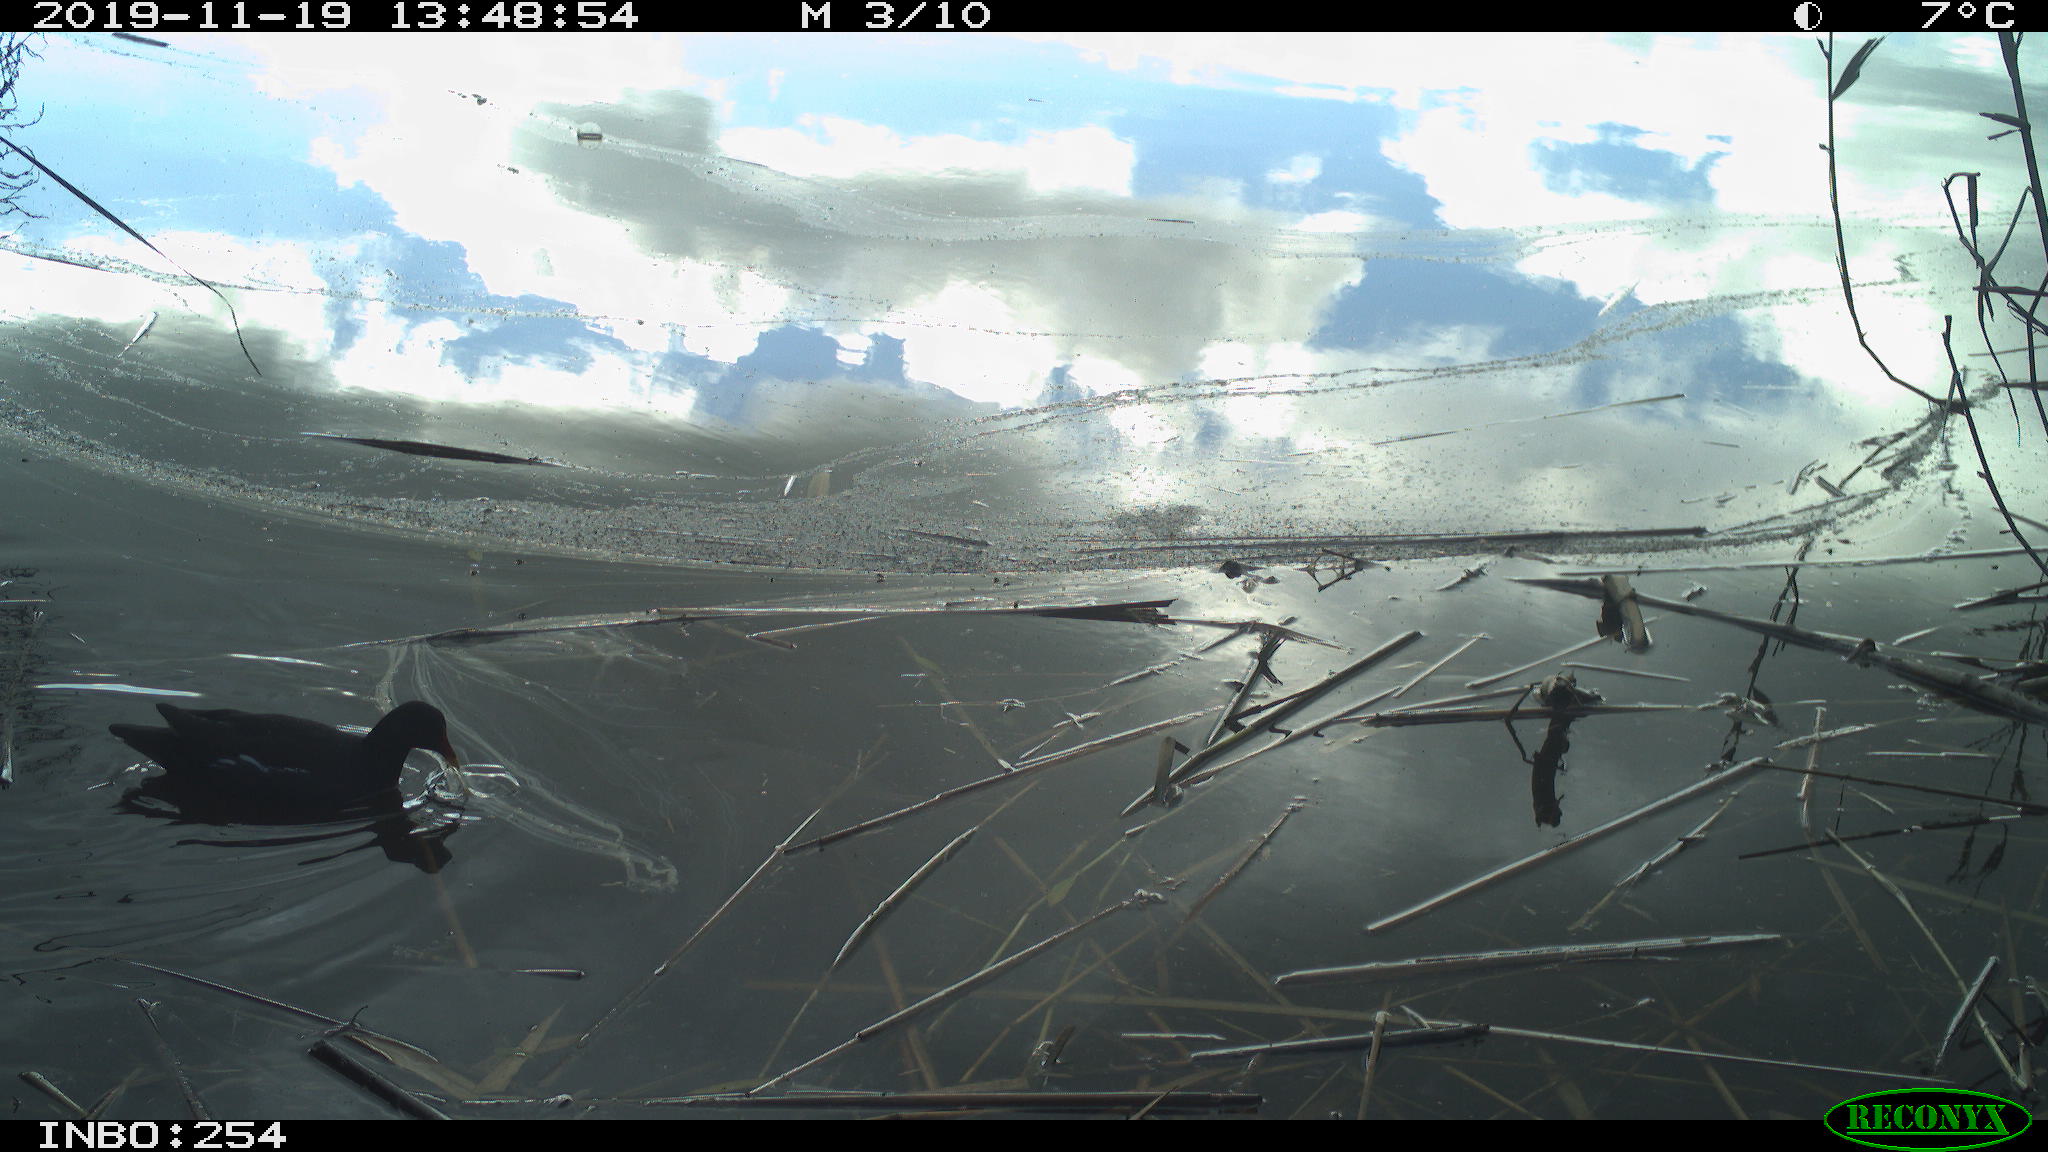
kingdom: Animalia
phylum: Chordata
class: Aves
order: Gruiformes
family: Rallidae
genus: Gallinula
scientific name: Gallinula chloropus
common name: Common moorhen
